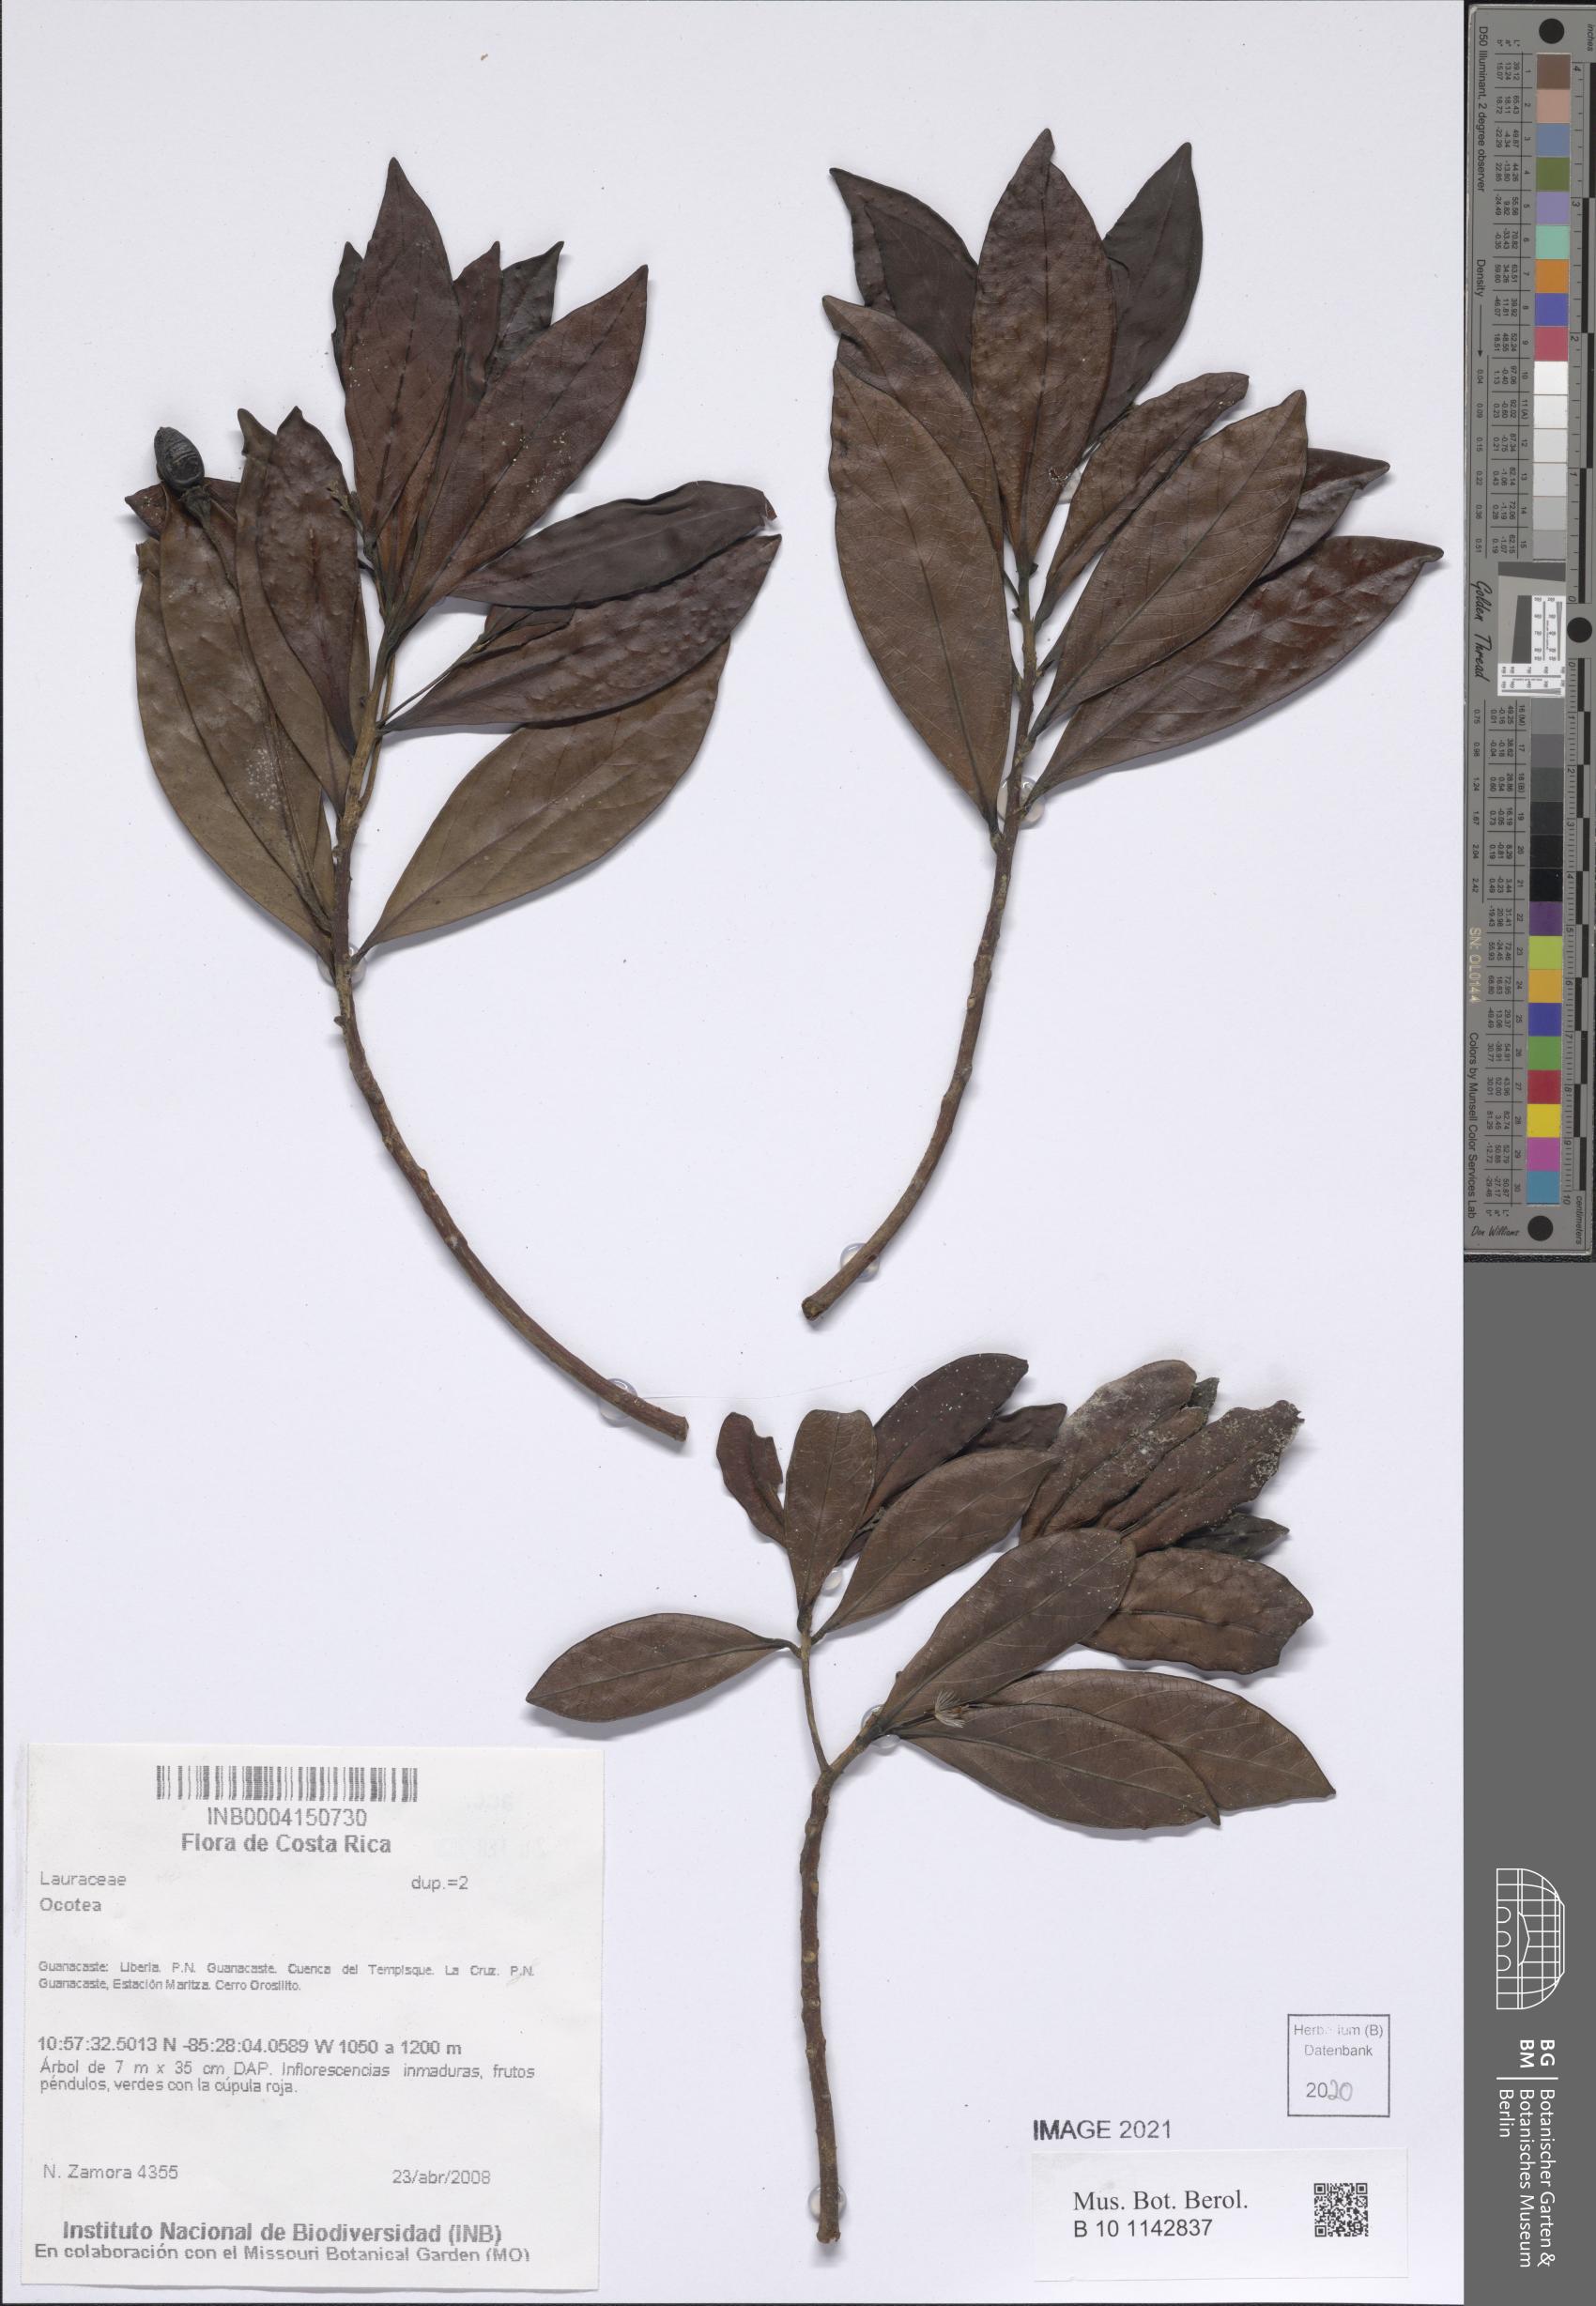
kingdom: Plantae
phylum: Tracheophyta
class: Magnoliopsida
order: Laurales
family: Lauraceae
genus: Ocotea
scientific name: Ocotea
